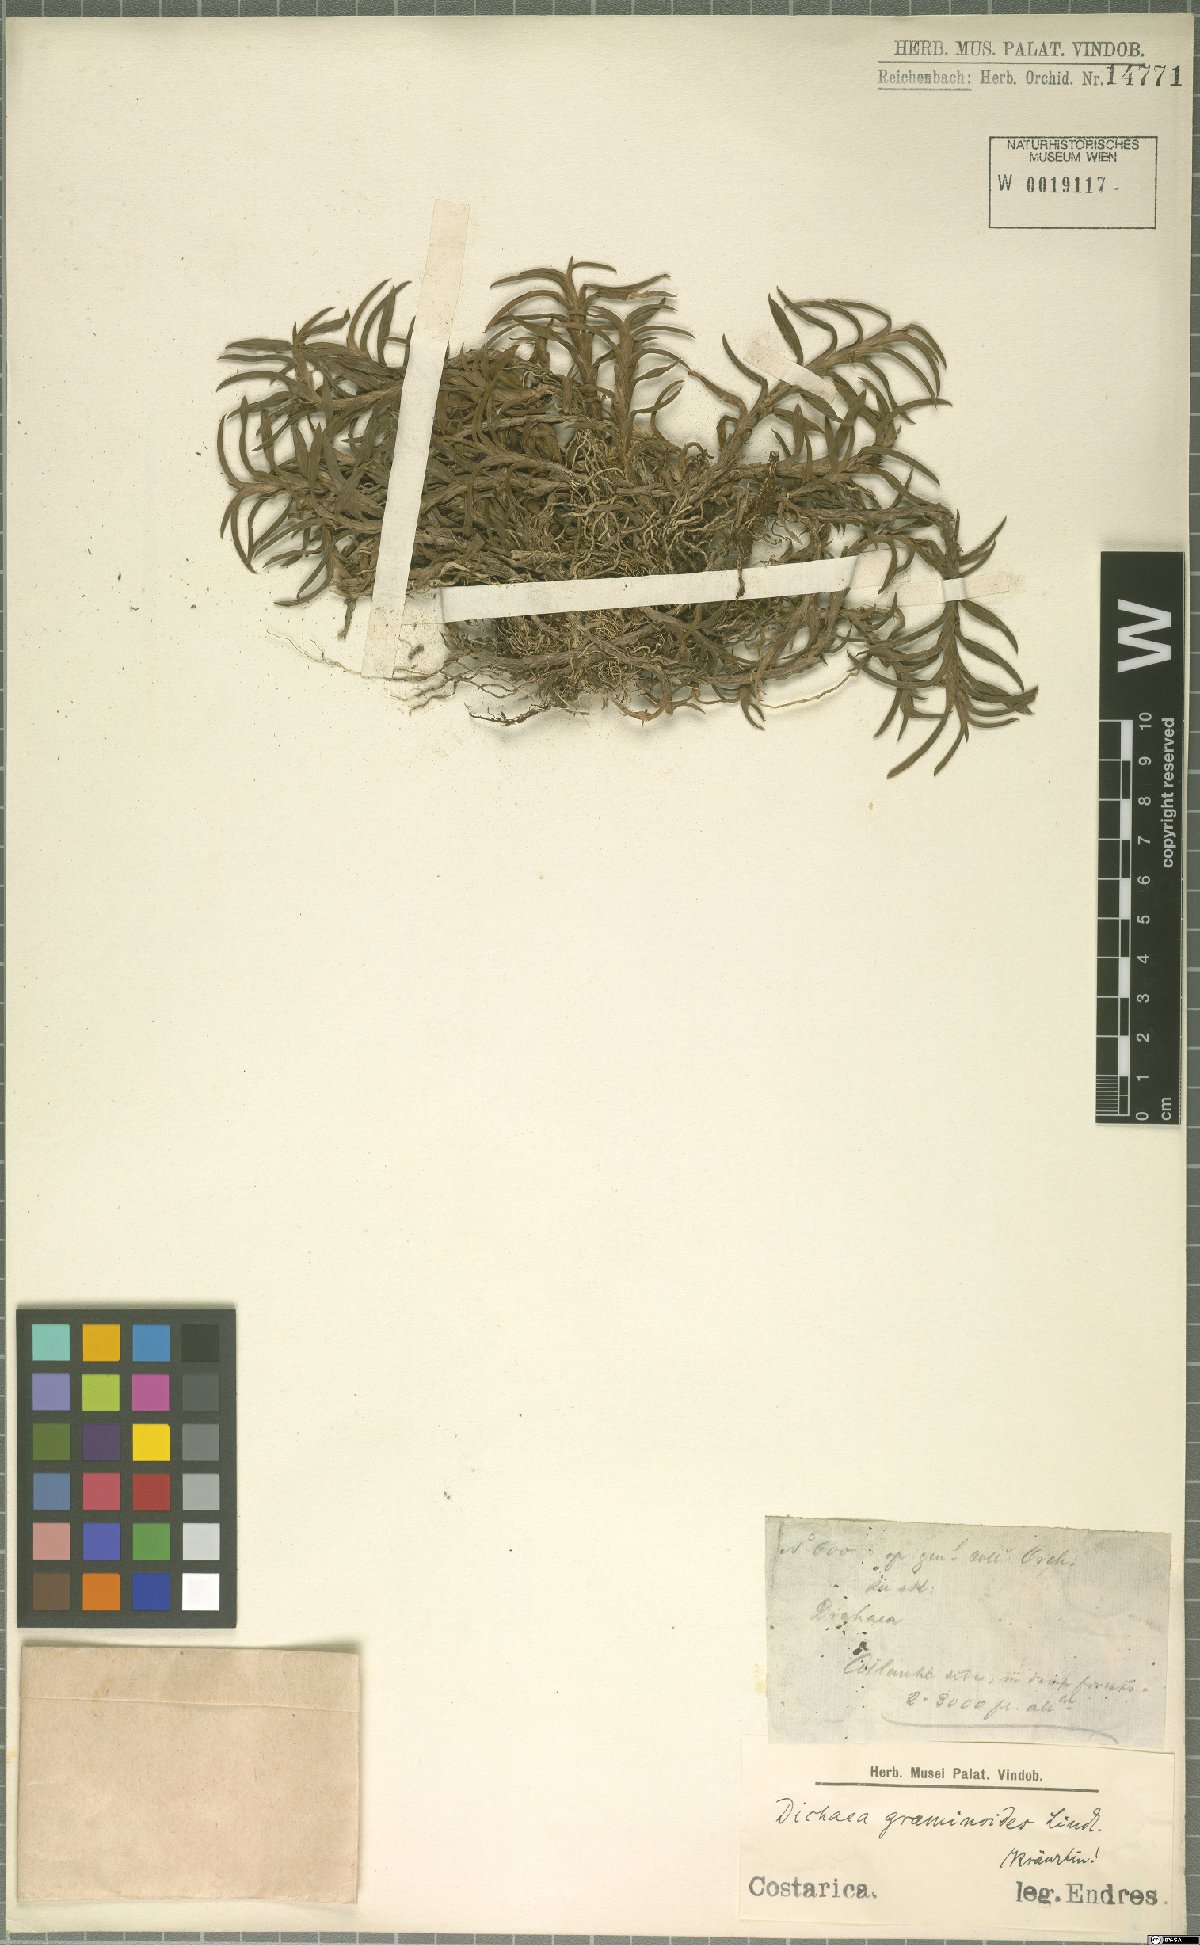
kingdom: Plantae
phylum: Tracheophyta
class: Liliopsida
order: Asparagales
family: Orchidaceae
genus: Dichaea
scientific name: Dichaea graminoides
